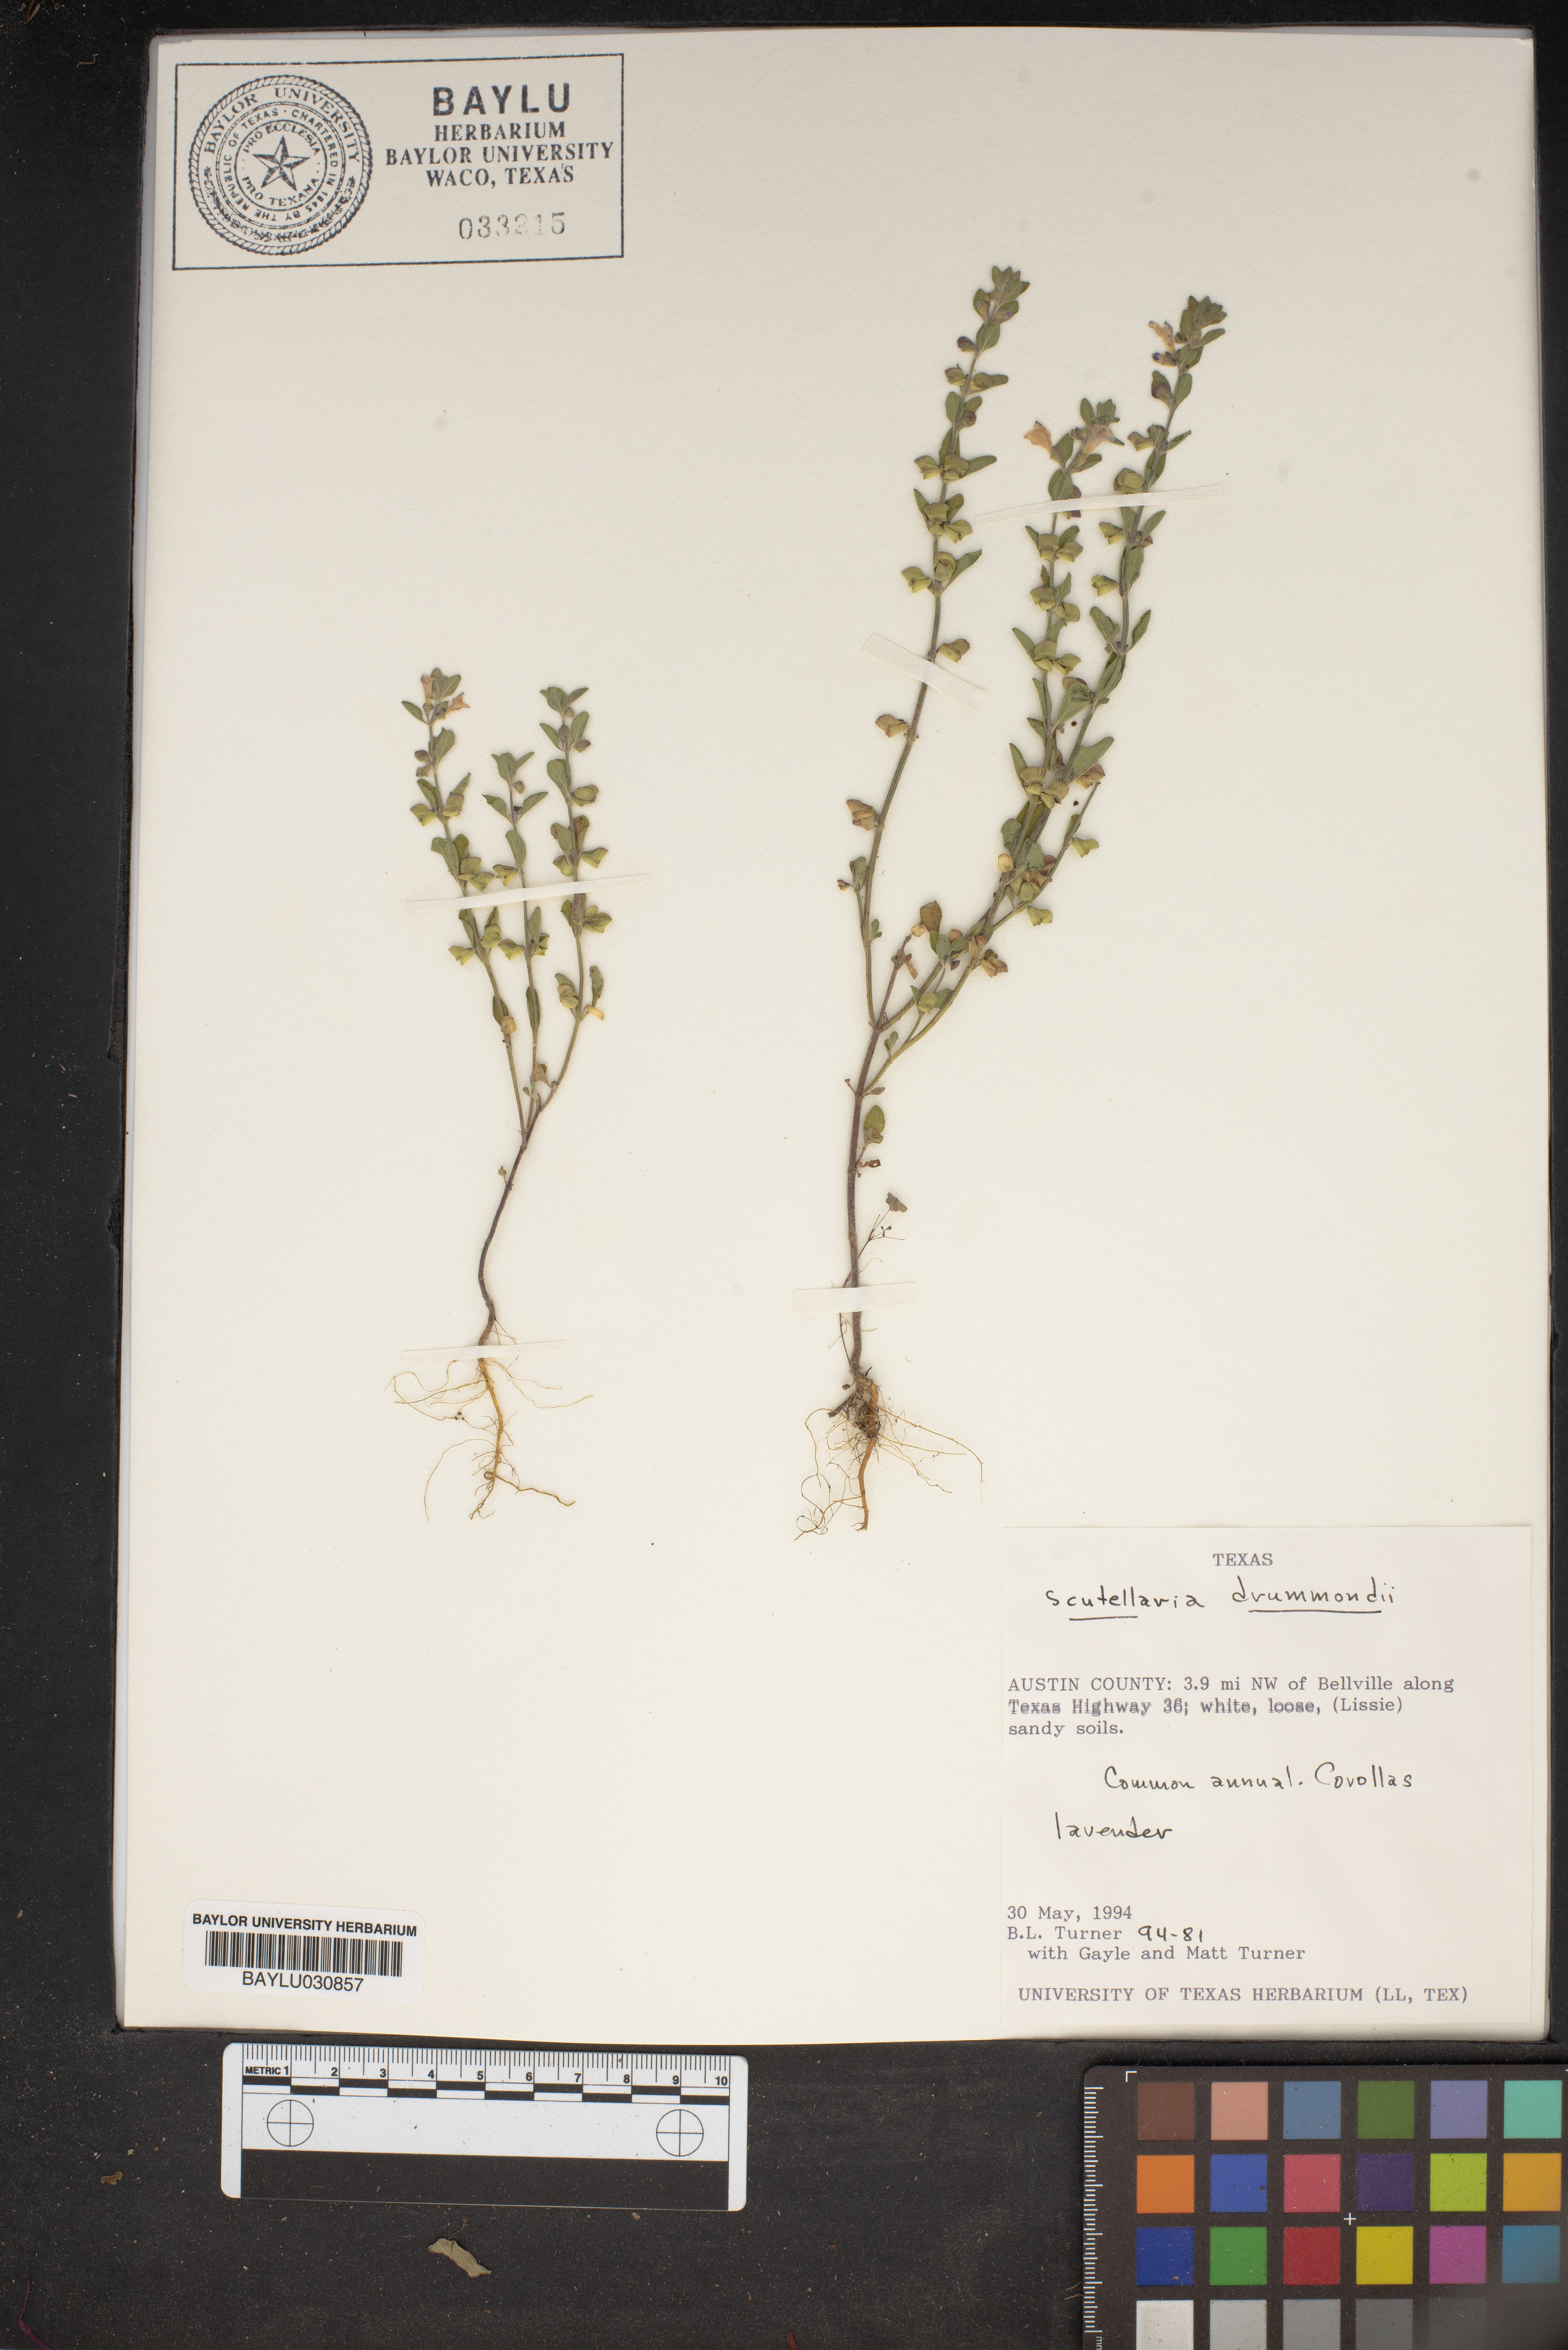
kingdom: Plantae
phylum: Tracheophyta
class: Magnoliopsida
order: Lamiales
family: Lamiaceae
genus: Scutellaria
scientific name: Scutellaria drummondii
